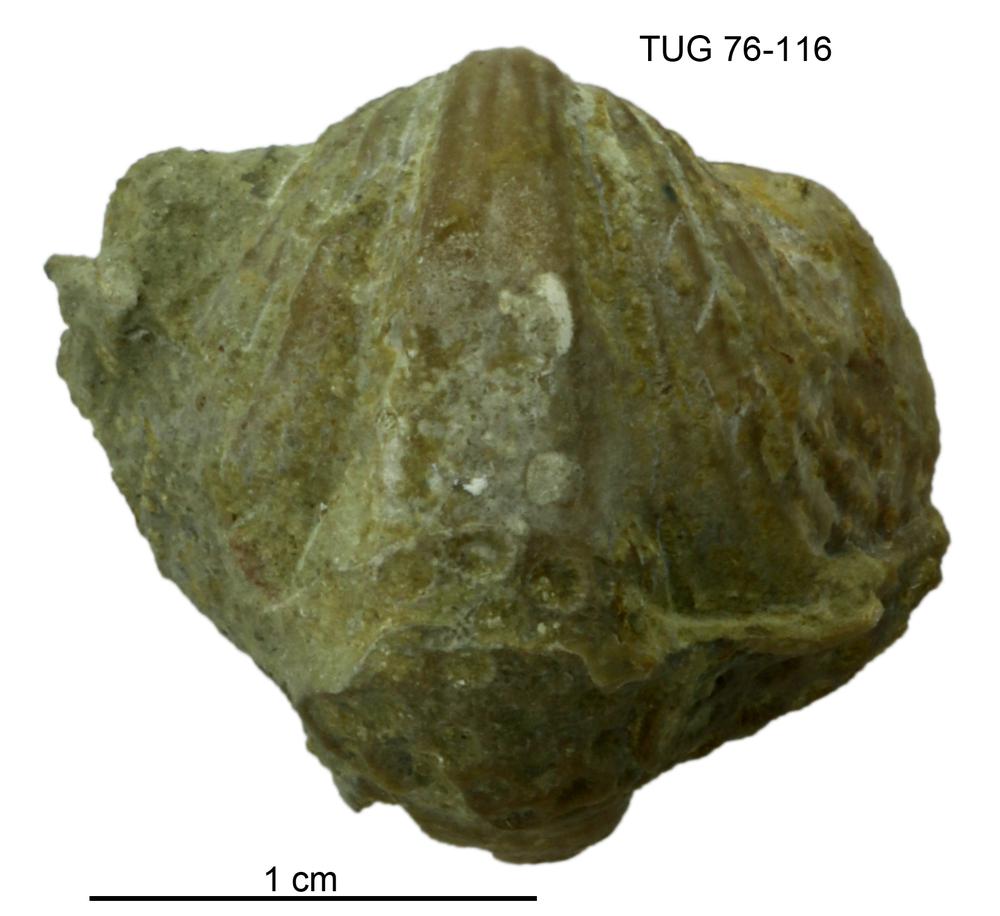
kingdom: Animalia
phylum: Brachiopoda
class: Rhynchonellata
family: Triplesiidae
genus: Oxoplecia
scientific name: Oxoplecia
